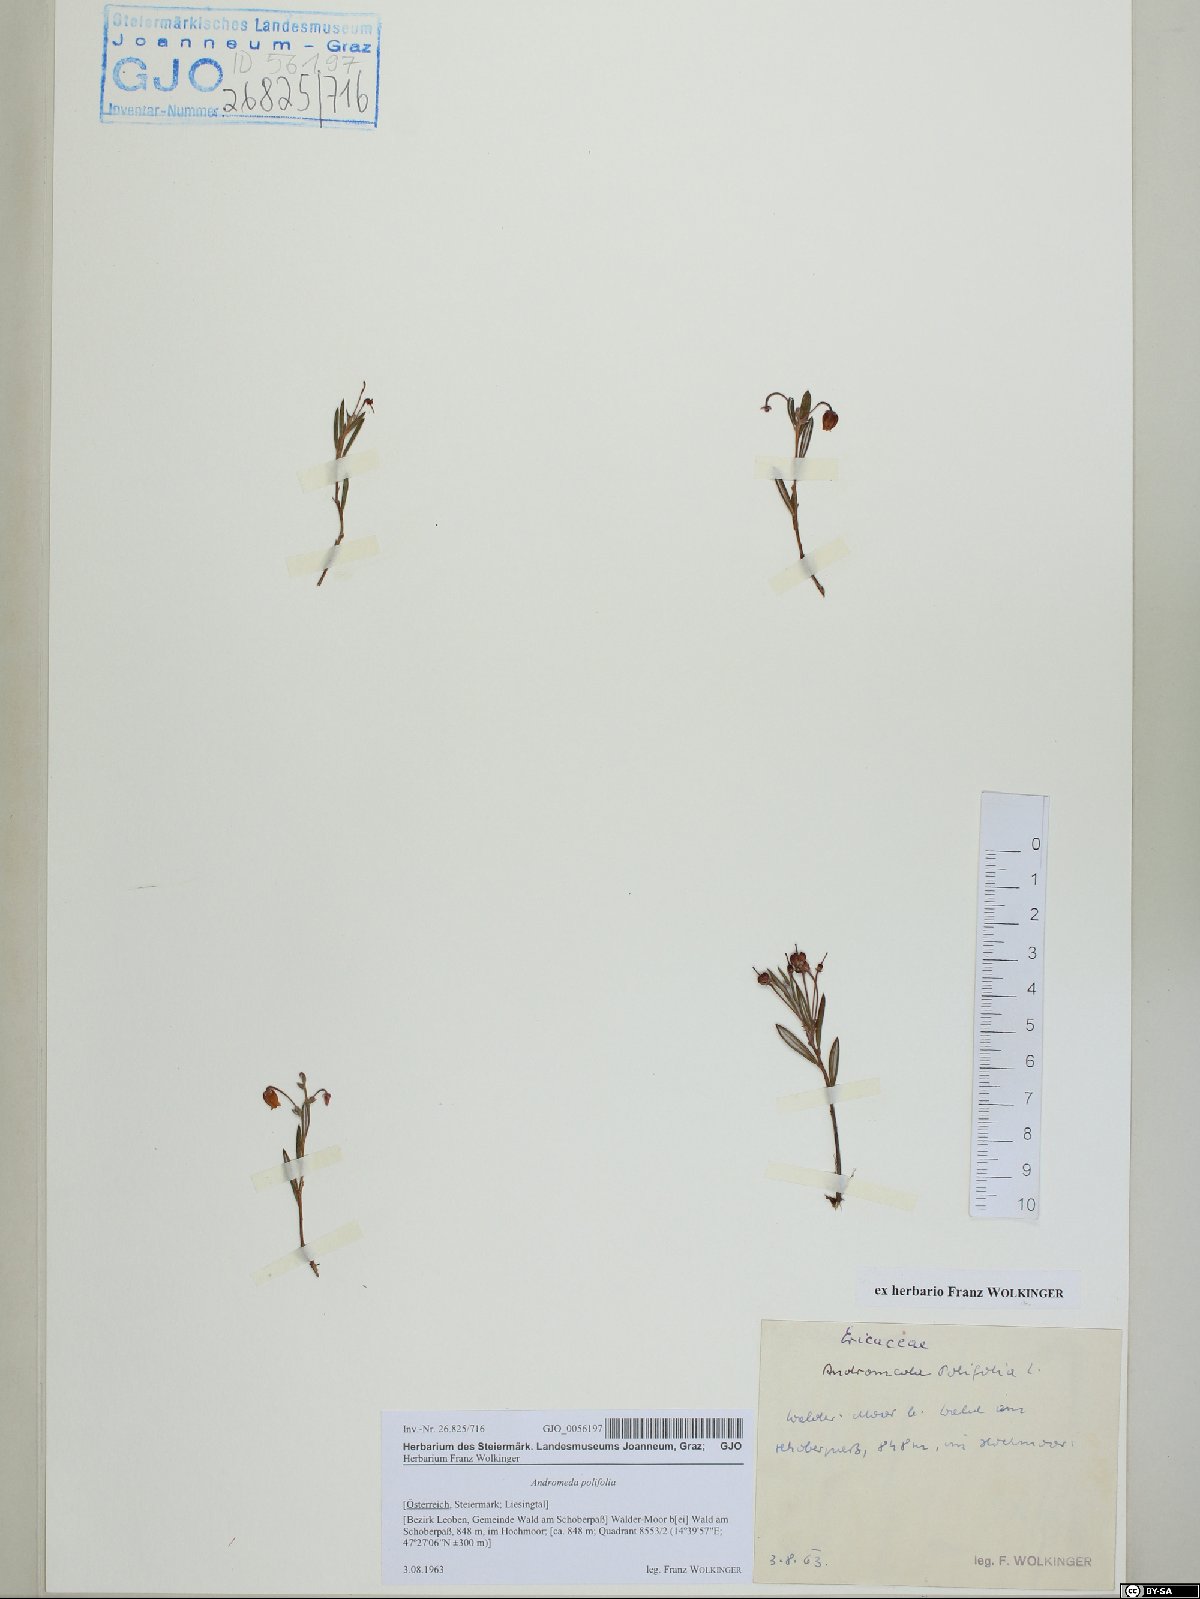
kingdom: Plantae
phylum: Tracheophyta
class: Magnoliopsida
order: Ericales
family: Ericaceae
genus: Andromeda
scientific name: Andromeda polifolia
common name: Bog-rosemary
